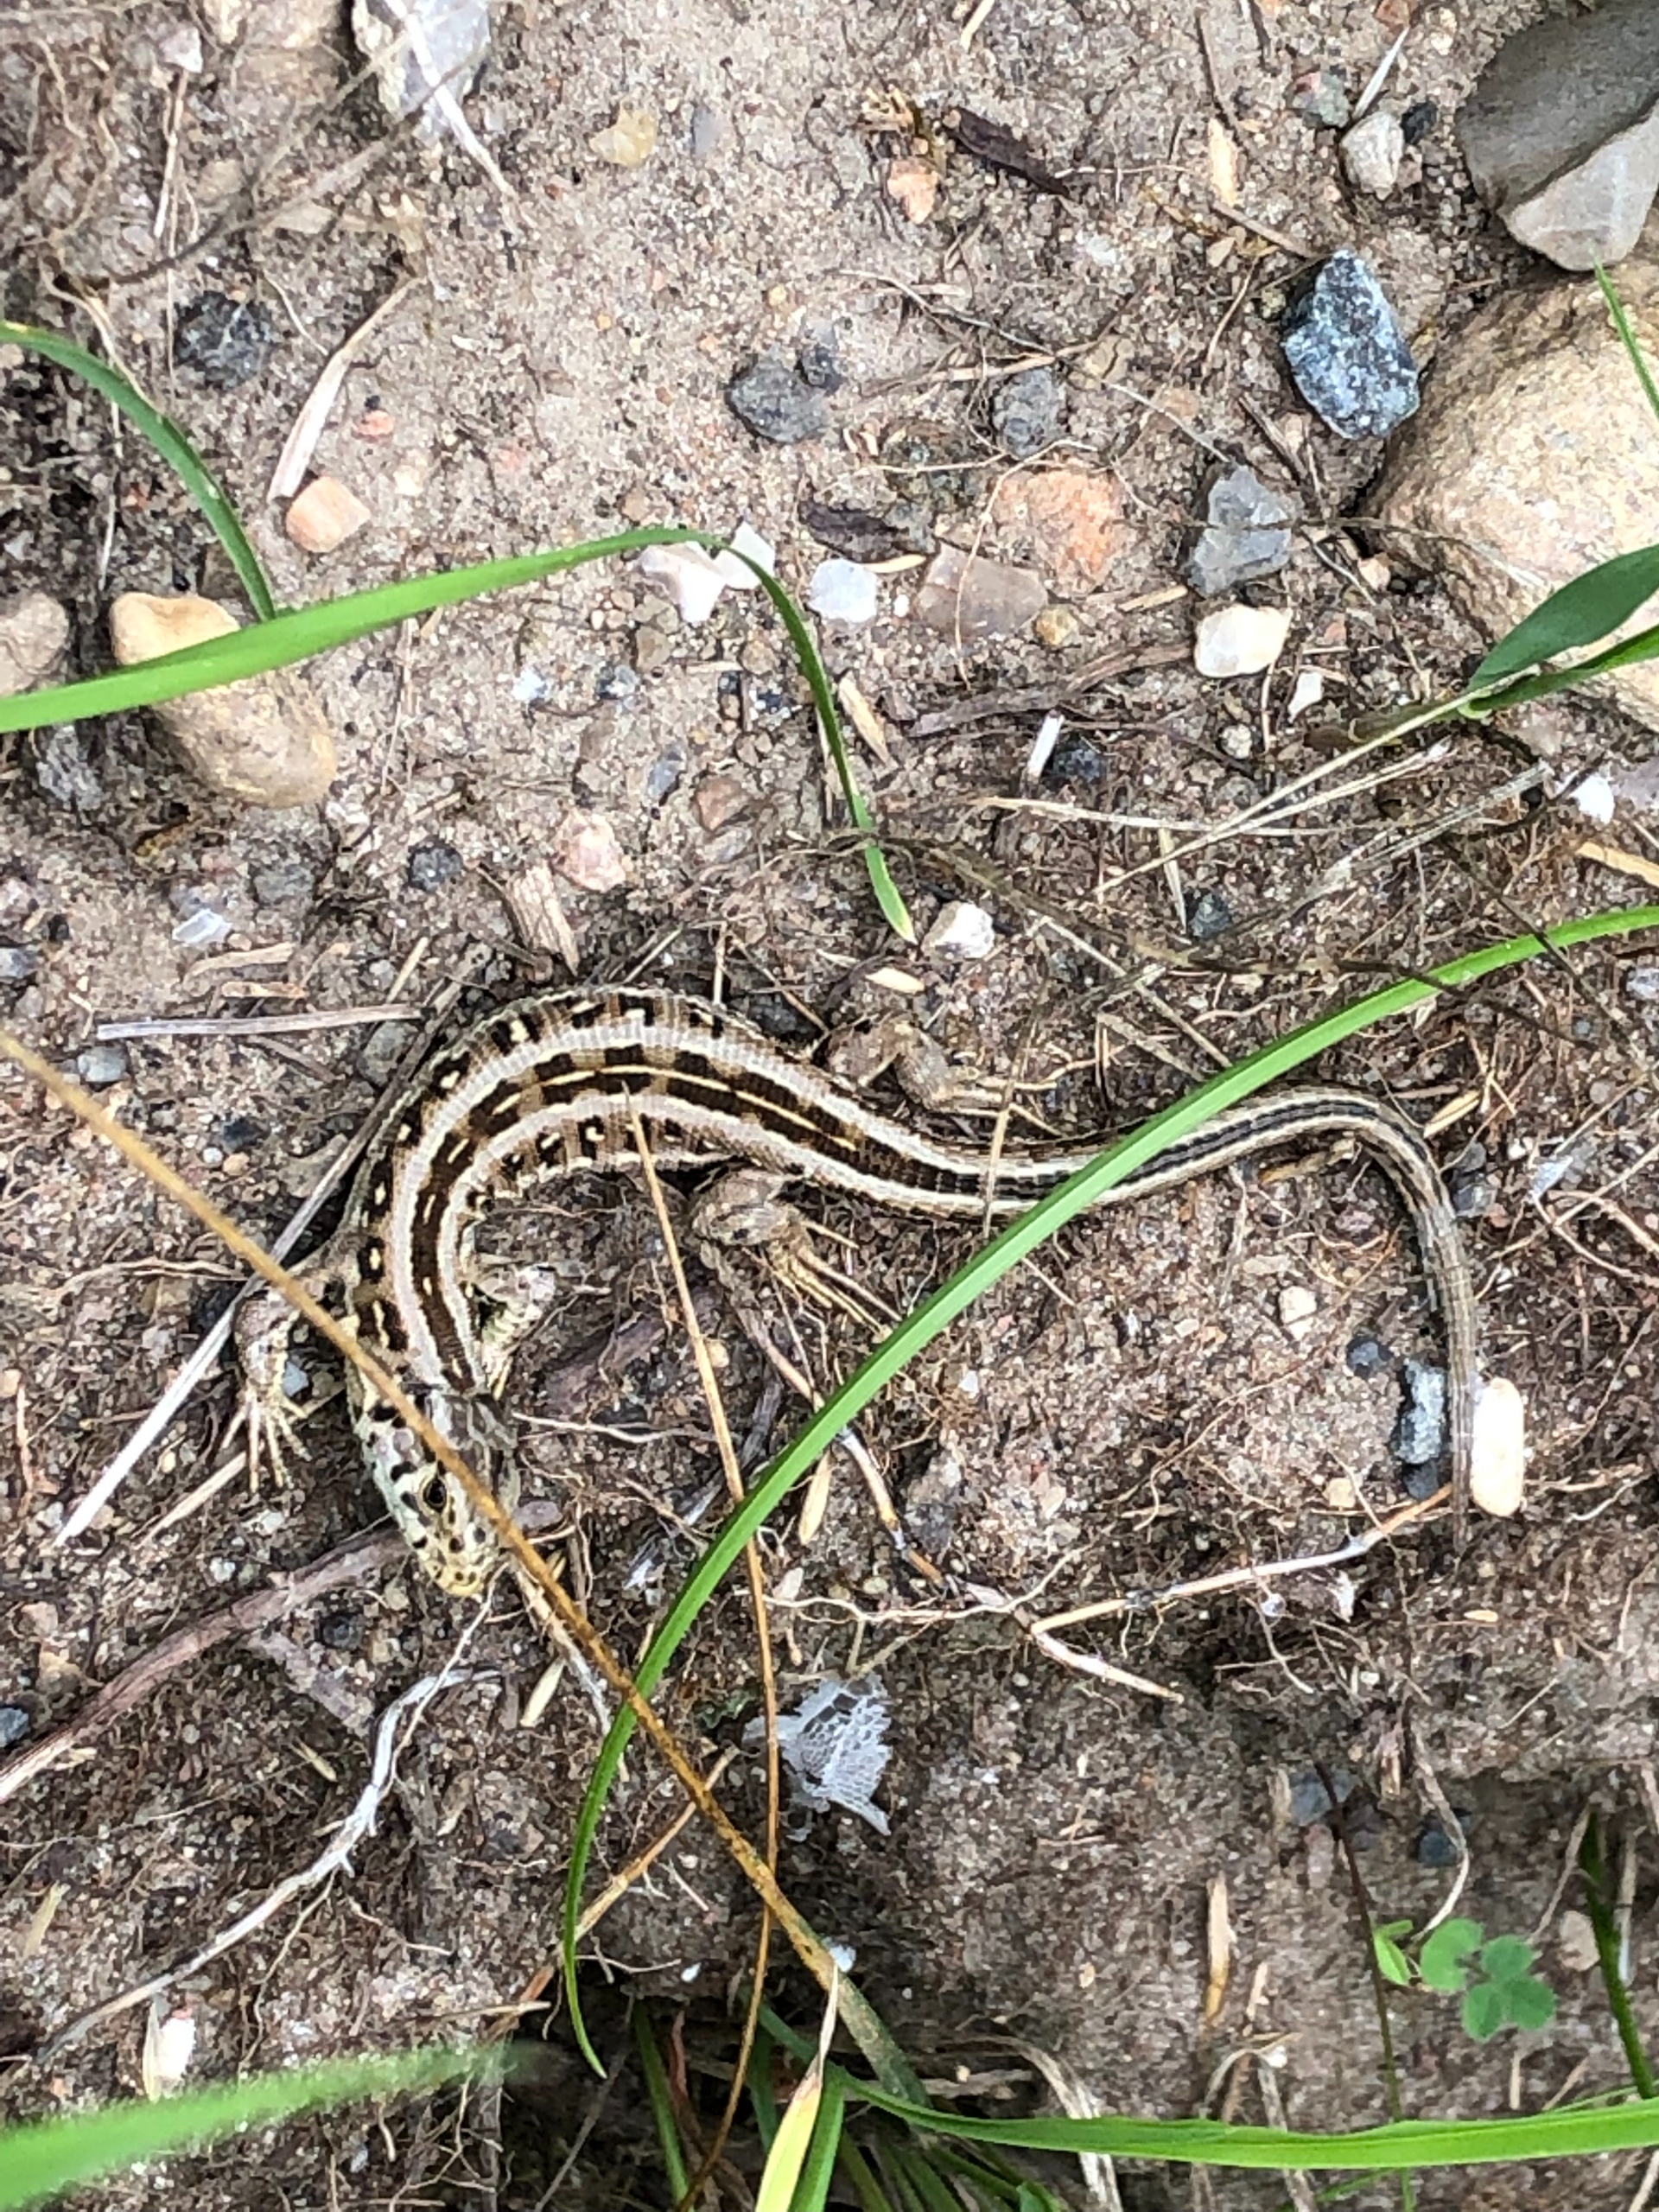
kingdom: Animalia
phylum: Chordata
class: Squamata
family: Lacertidae
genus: Lacerta
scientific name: Lacerta agilis
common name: Markfirben
